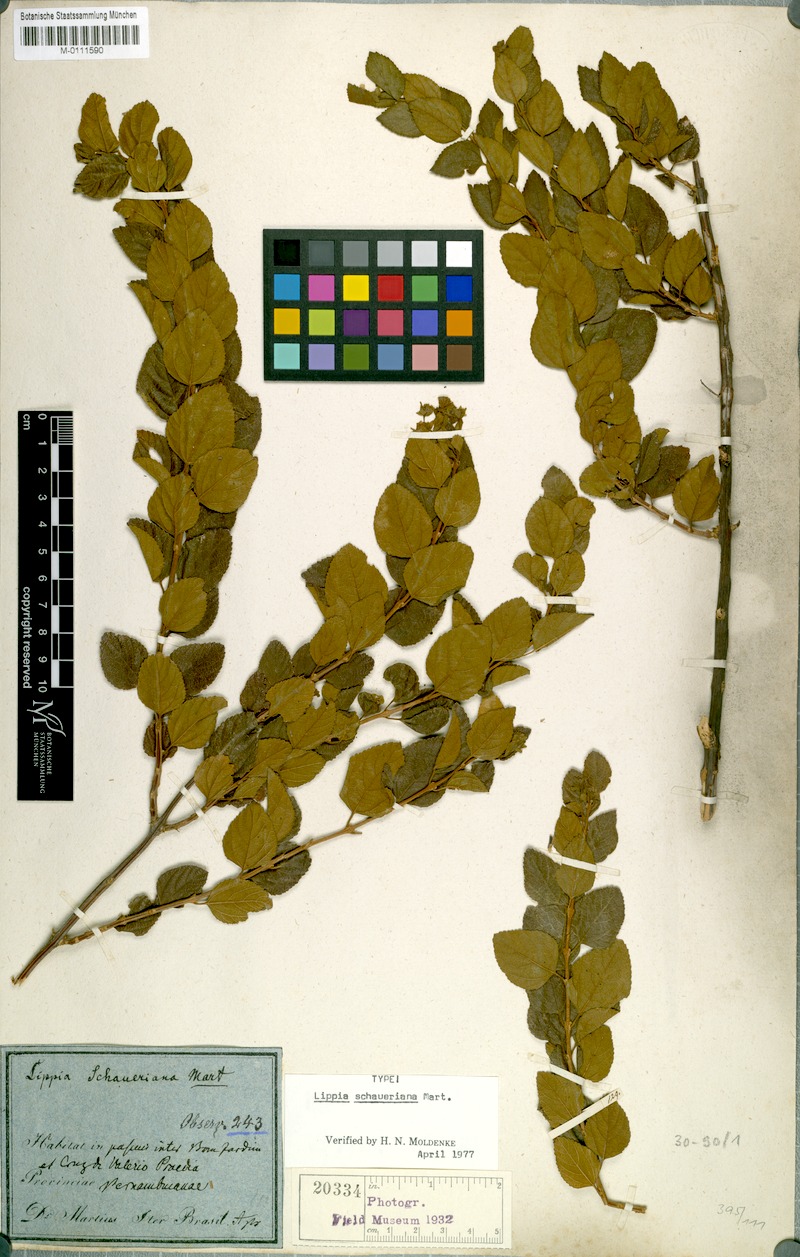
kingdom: Plantae
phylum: Tracheophyta
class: Magnoliopsida
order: Lamiales
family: Verbenaceae
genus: Lippia
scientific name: Lippia schaueriana
